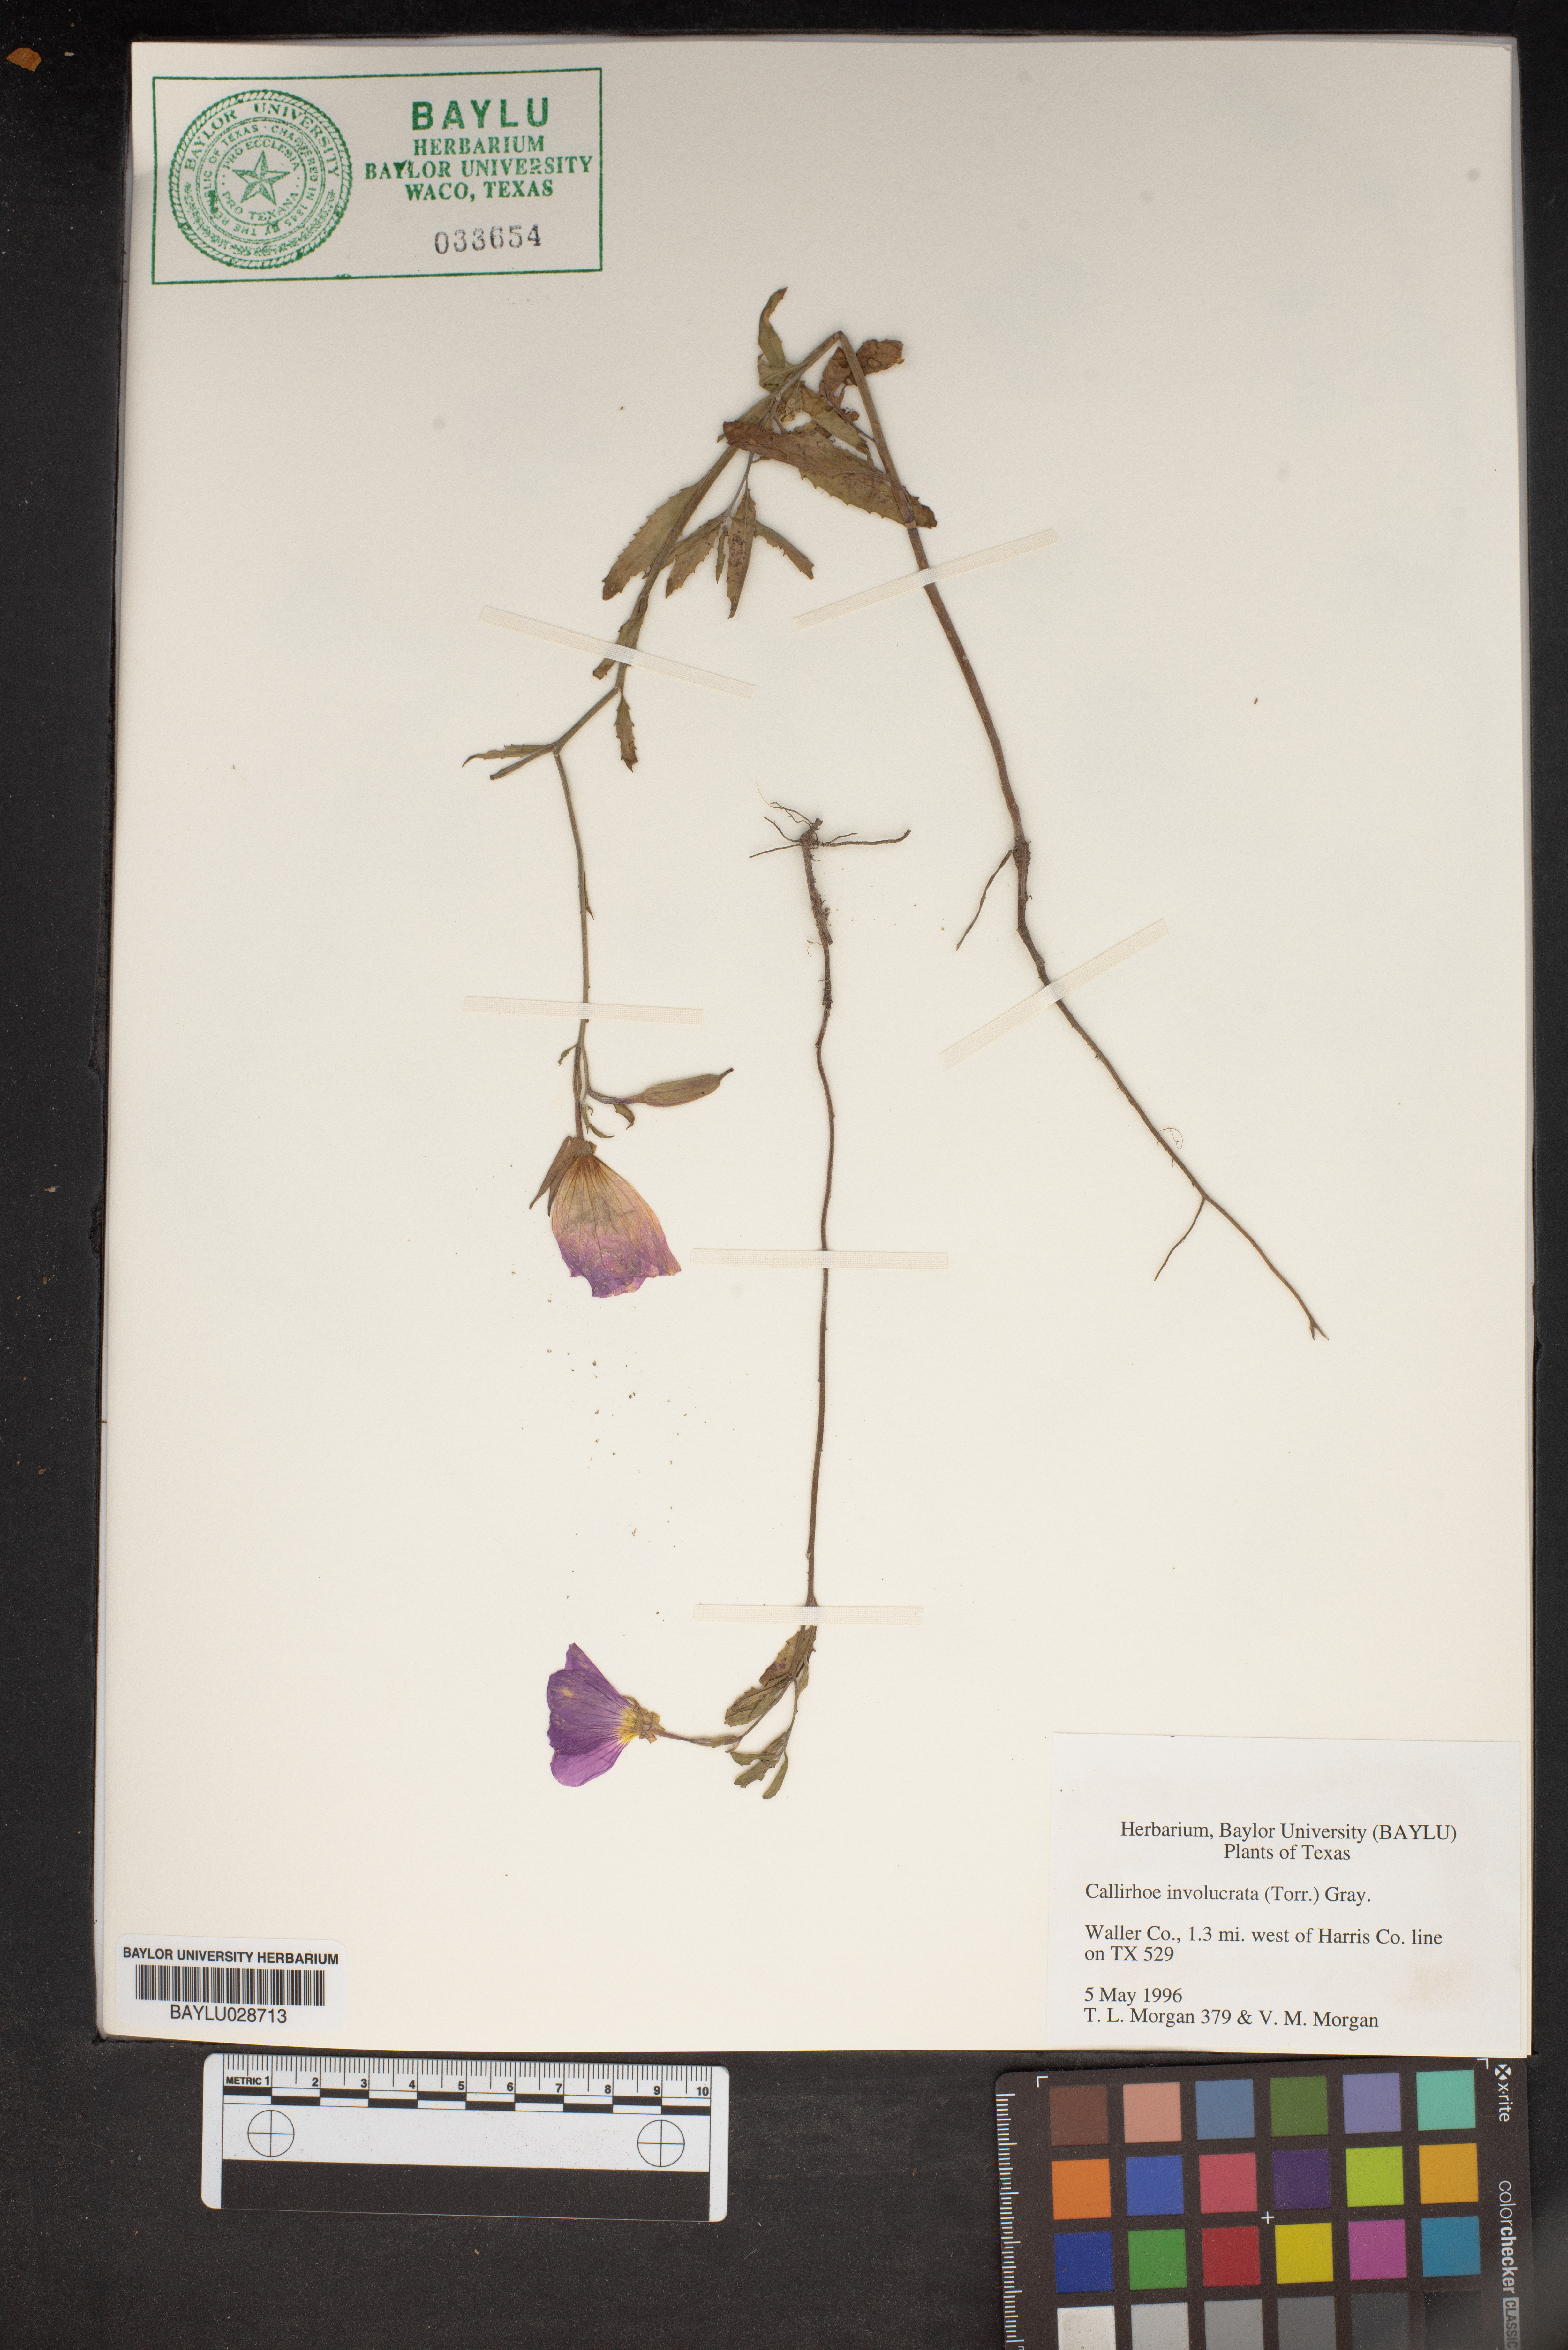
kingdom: Plantae
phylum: Tracheophyta
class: Magnoliopsida
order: Malvales
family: Malvaceae
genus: Callirhoe
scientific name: Callirhoe involucrata
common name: Purple poppy-mallow
